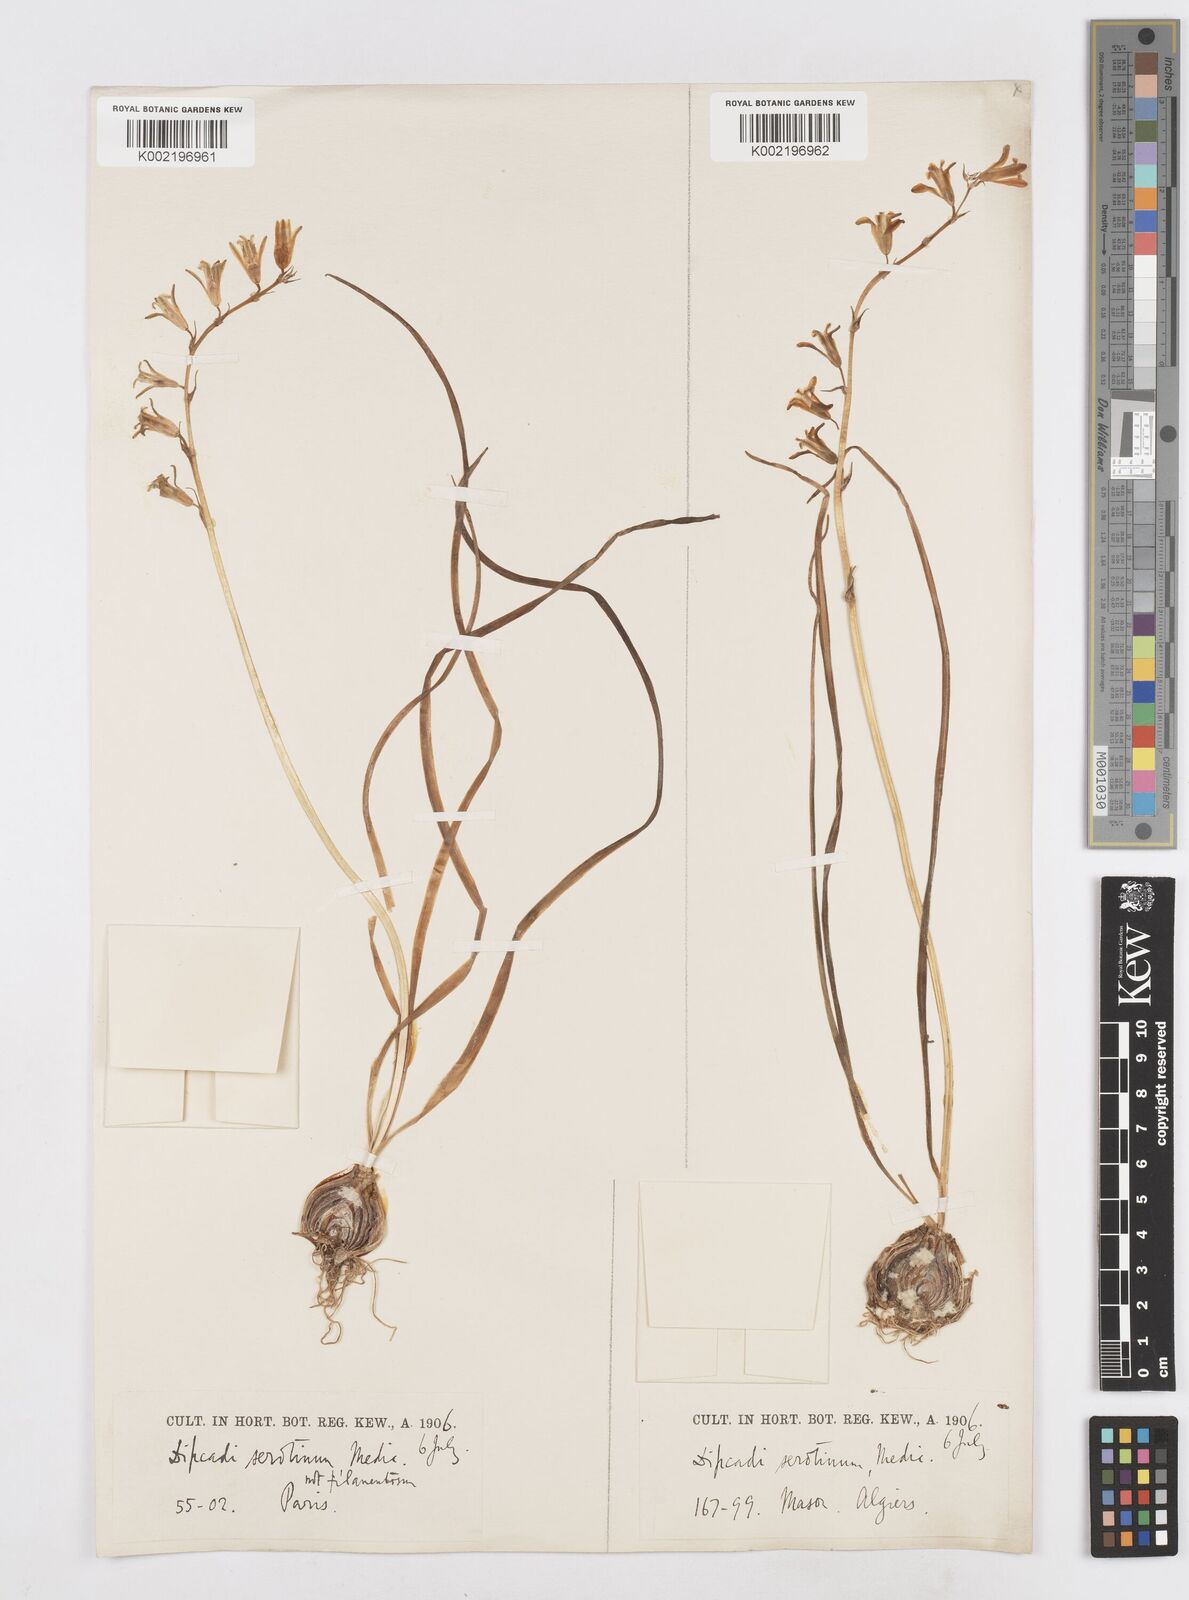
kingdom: Plantae
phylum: Tracheophyta
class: Liliopsida
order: Asparagales
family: Asparagaceae
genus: Dipcadi
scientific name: Dipcadi serotinum
